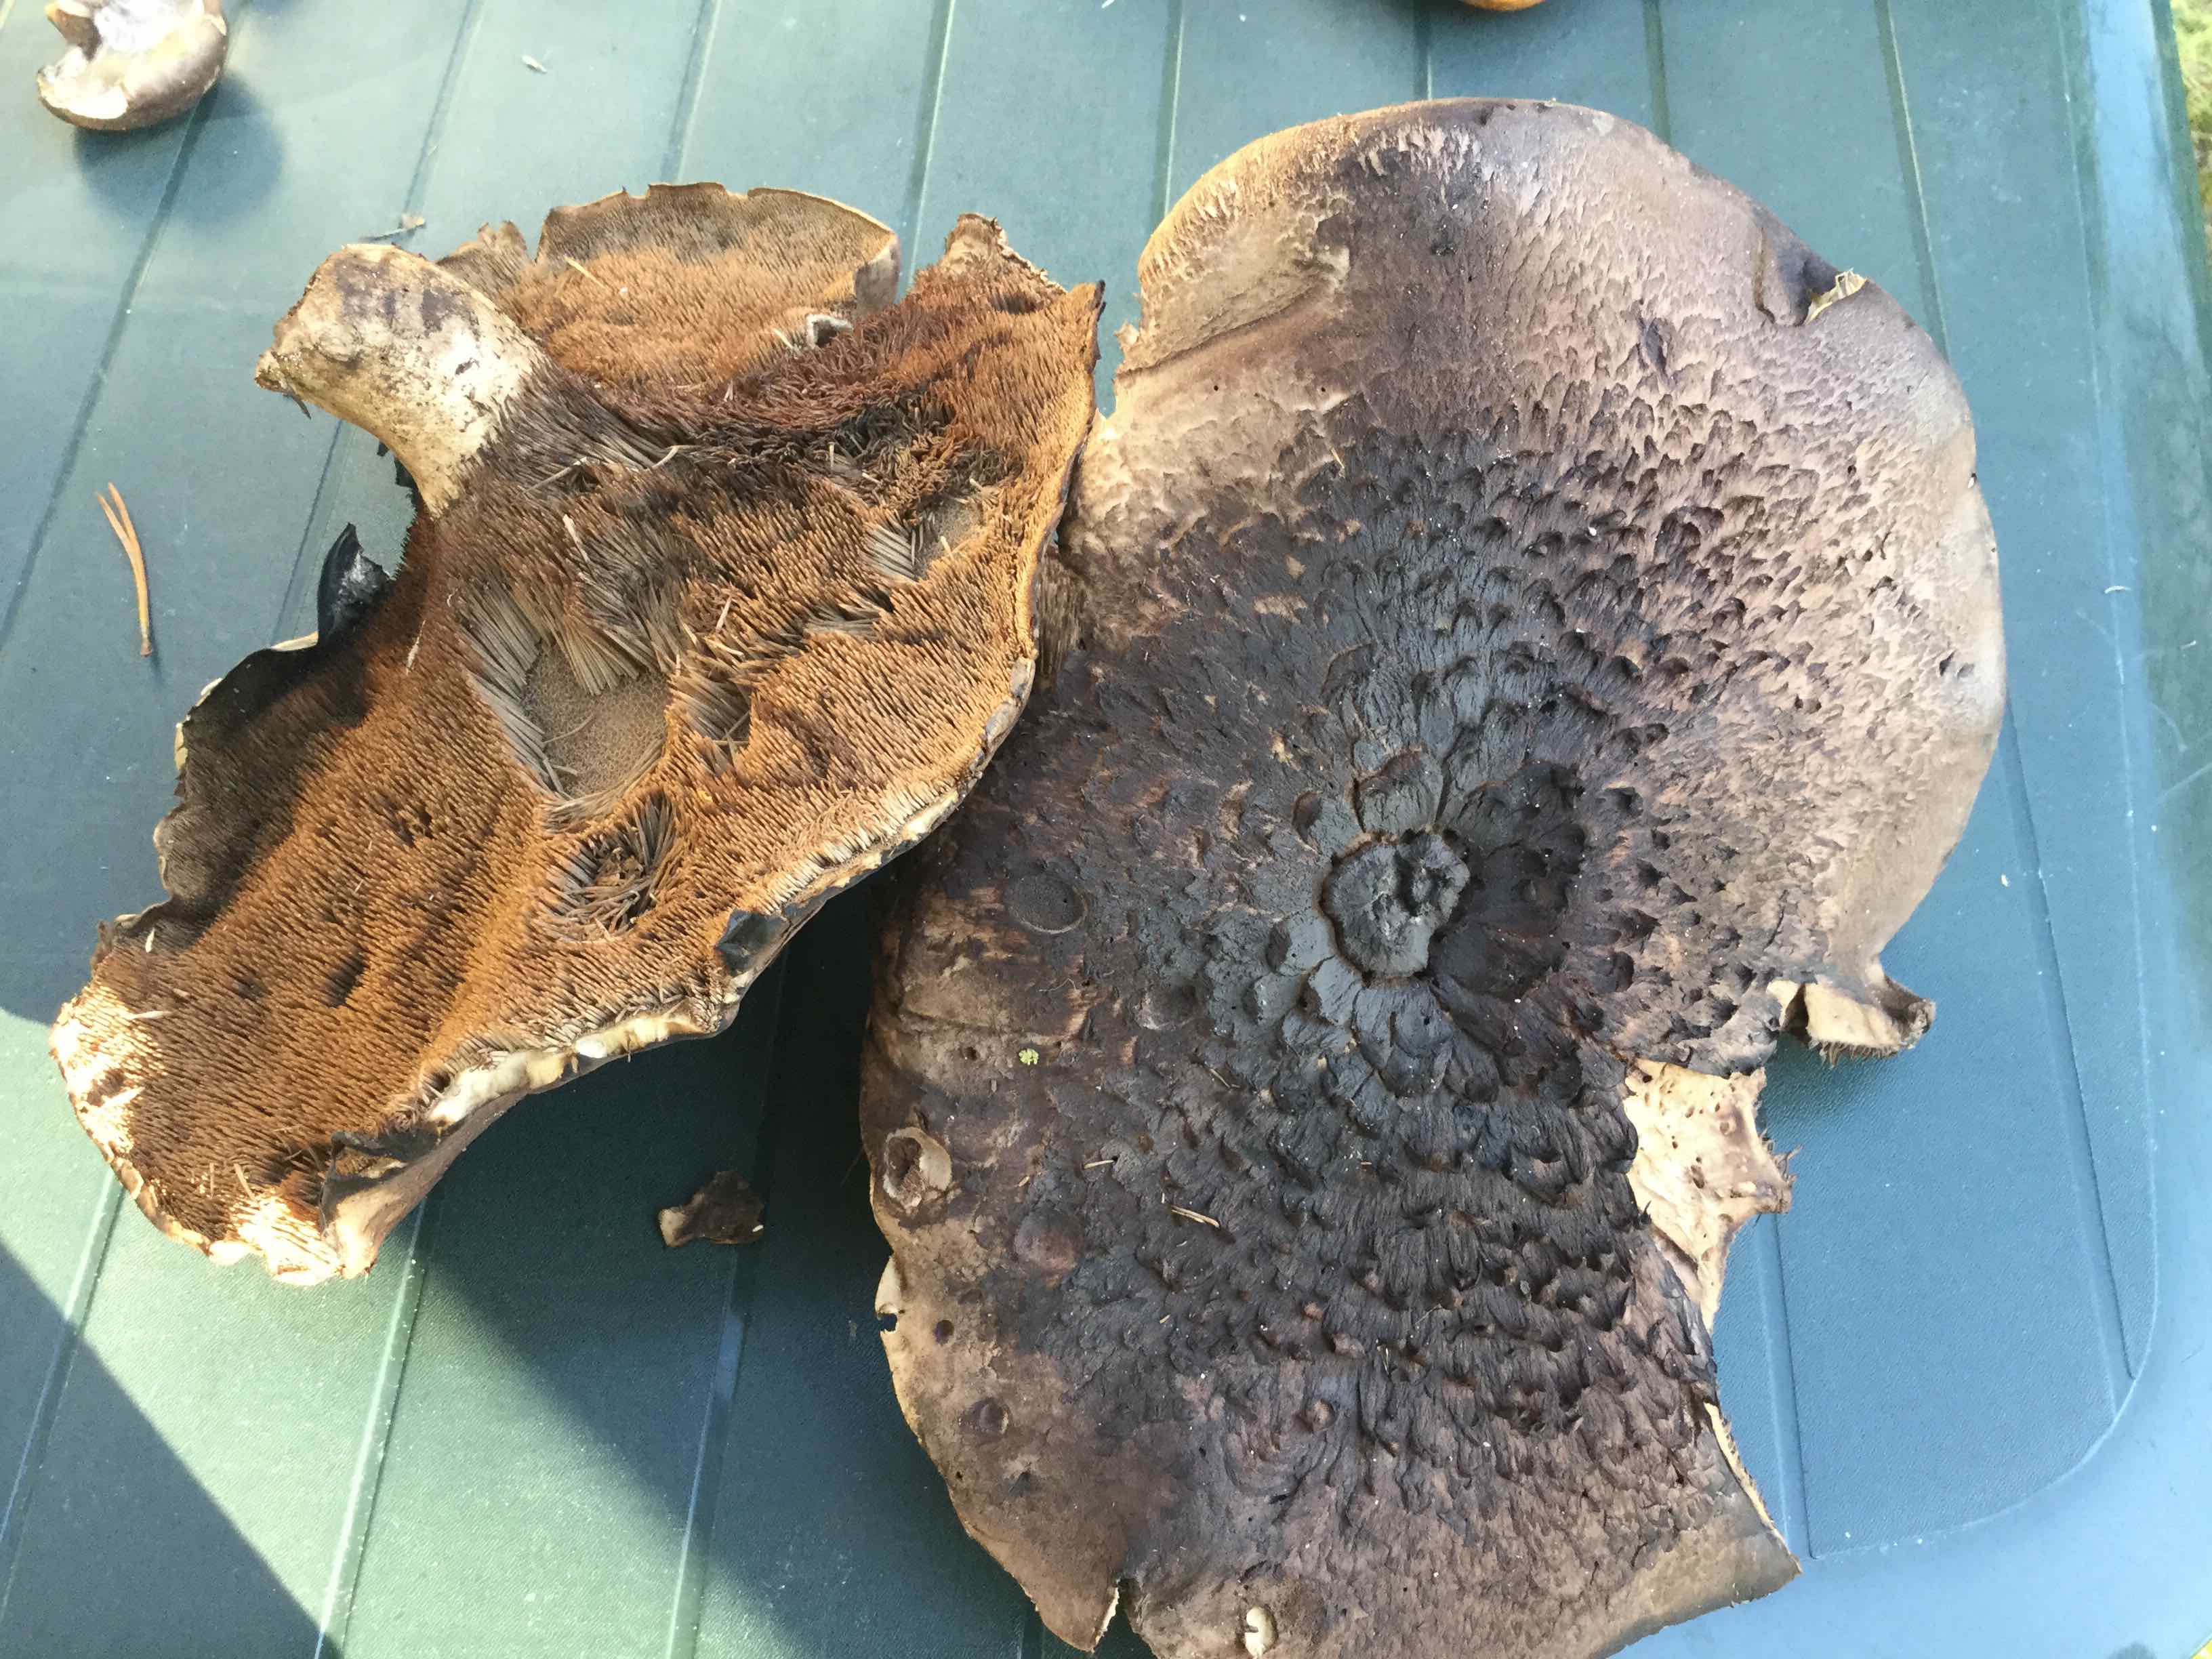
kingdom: Fungi
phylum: Basidiomycota
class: Agaricomycetes
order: Thelephorales
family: Bankeraceae
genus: Sarcodon
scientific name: Sarcodon squamosus
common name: småskællet kødpigsvamp
